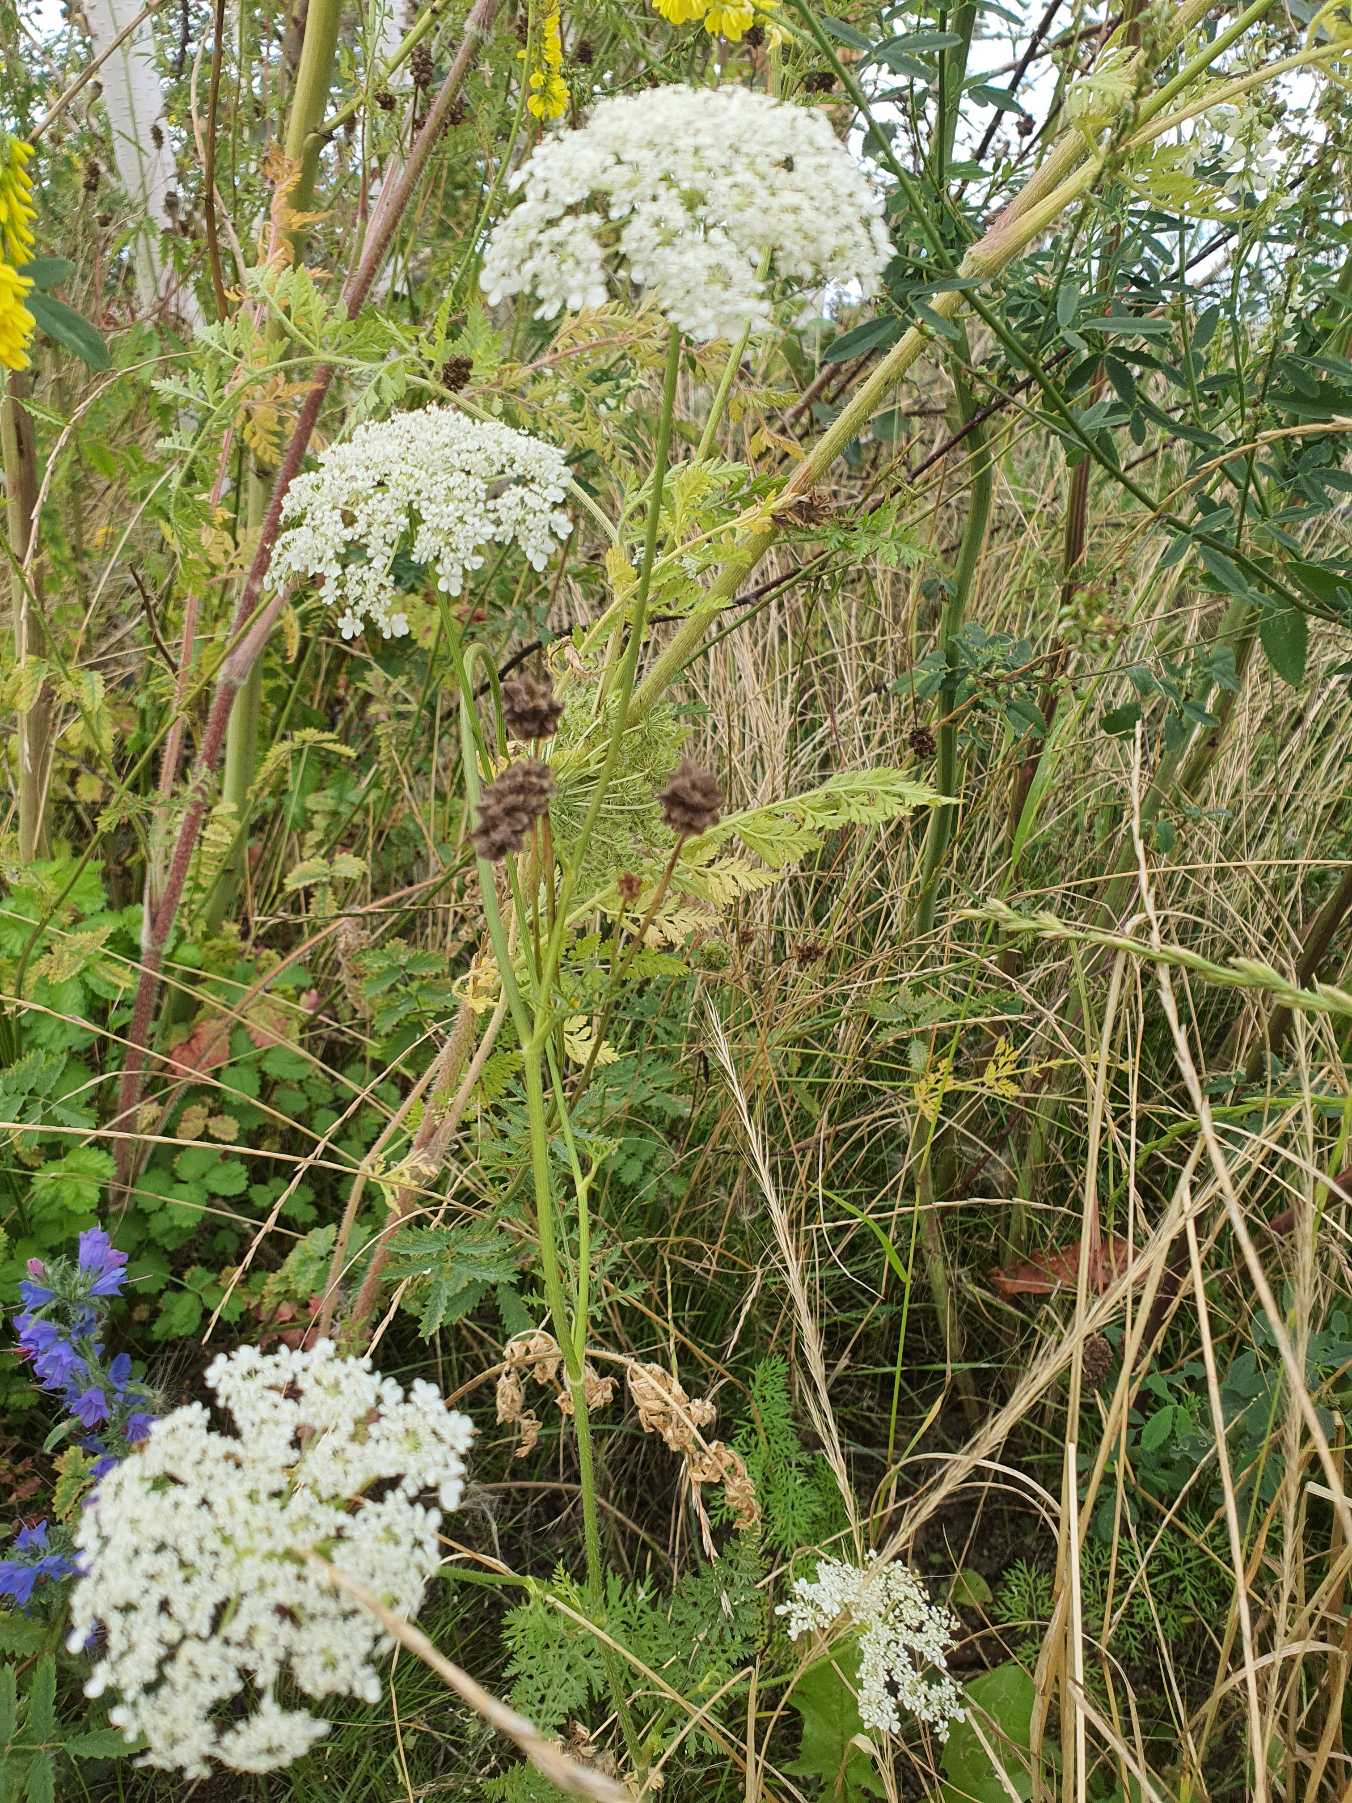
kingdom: Plantae
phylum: Tracheophyta
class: Magnoliopsida
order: Apiales
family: Apiaceae
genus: Daucus
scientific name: Daucus carota
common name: Gulerod
